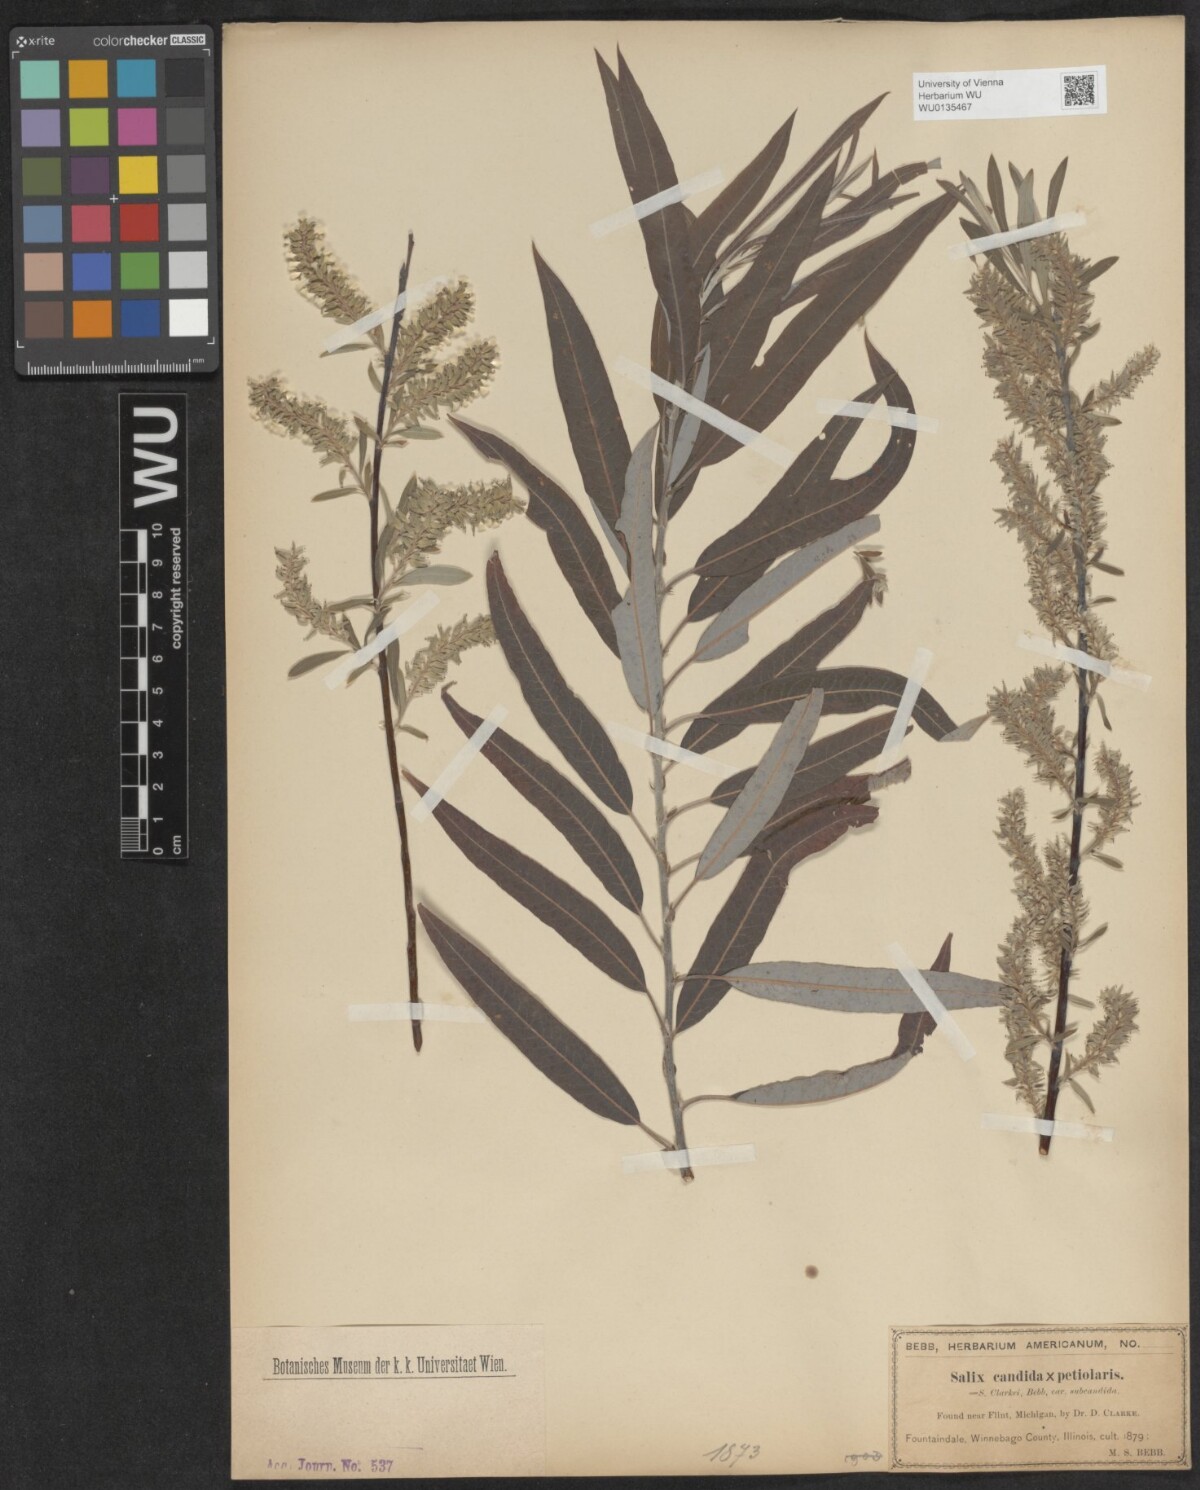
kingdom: Plantae
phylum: Tracheophyta
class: Magnoliopsida
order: Malpighiales
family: Salicaceae
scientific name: Salicaceae
